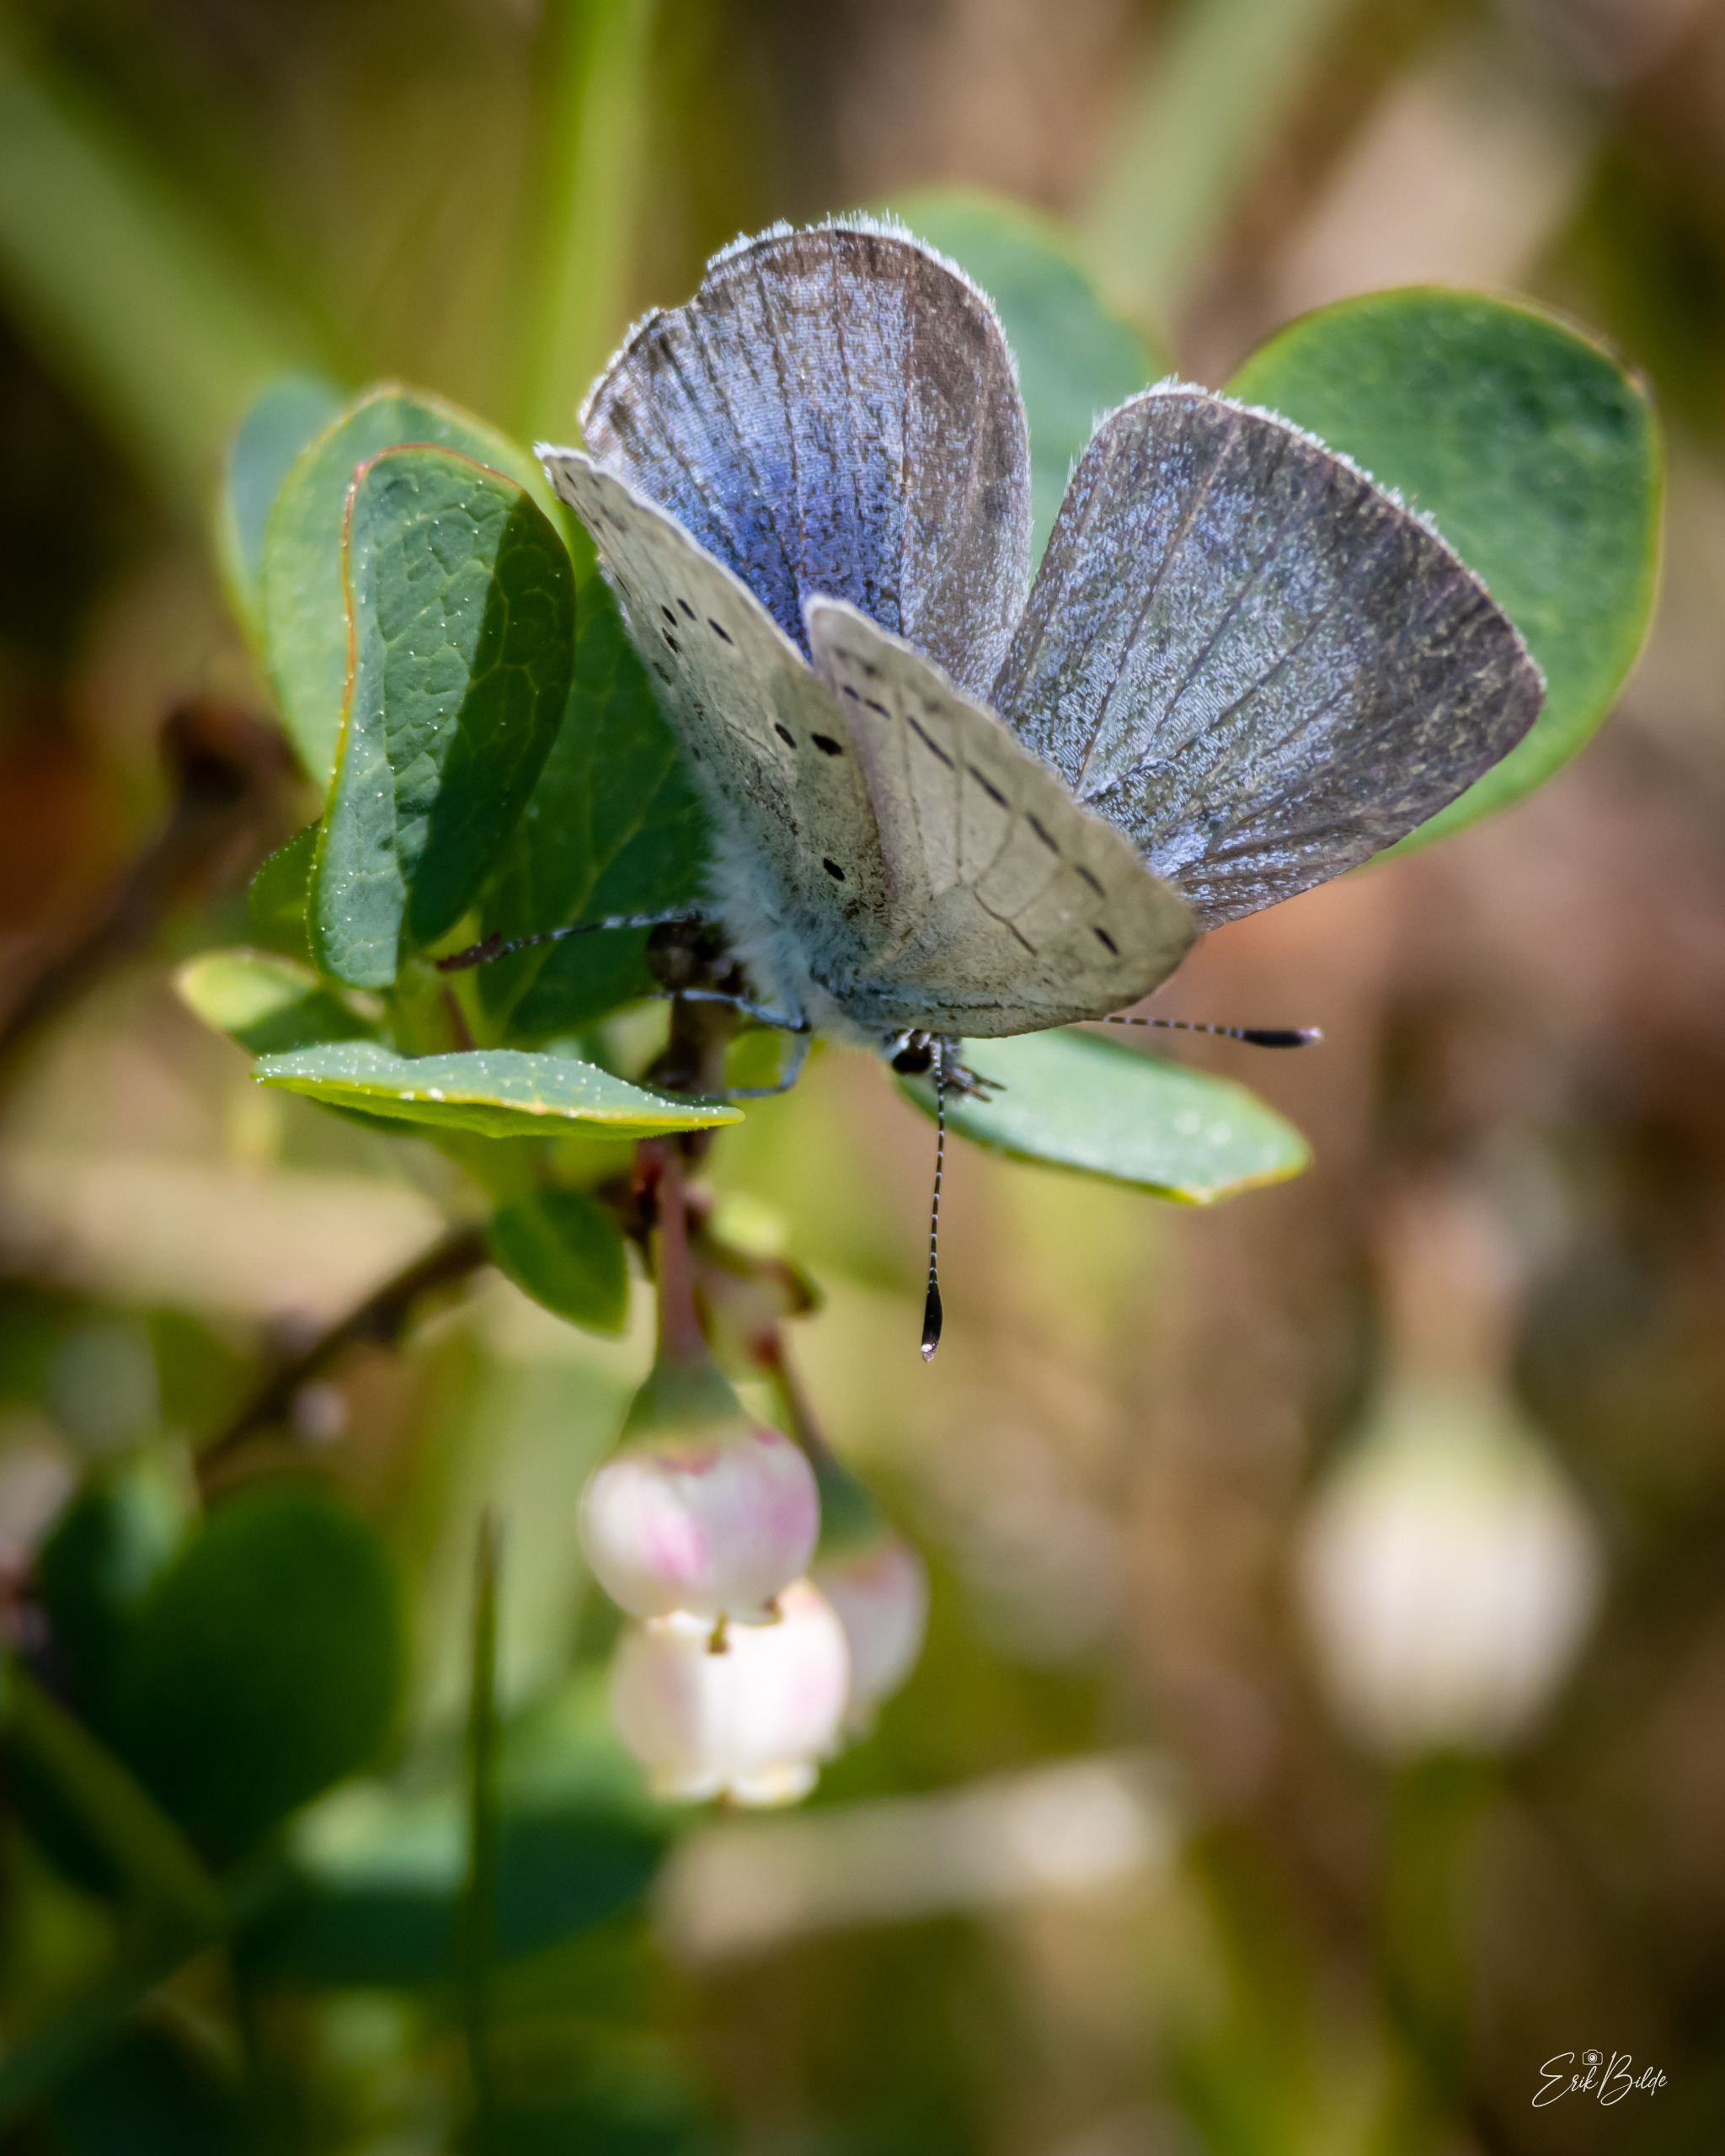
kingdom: Animalia
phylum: Arthropoda
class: Insecta
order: Lepidoptera
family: Lycaenidae
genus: Celastrina
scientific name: Celastrina argiolus
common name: Skovblåfugl
